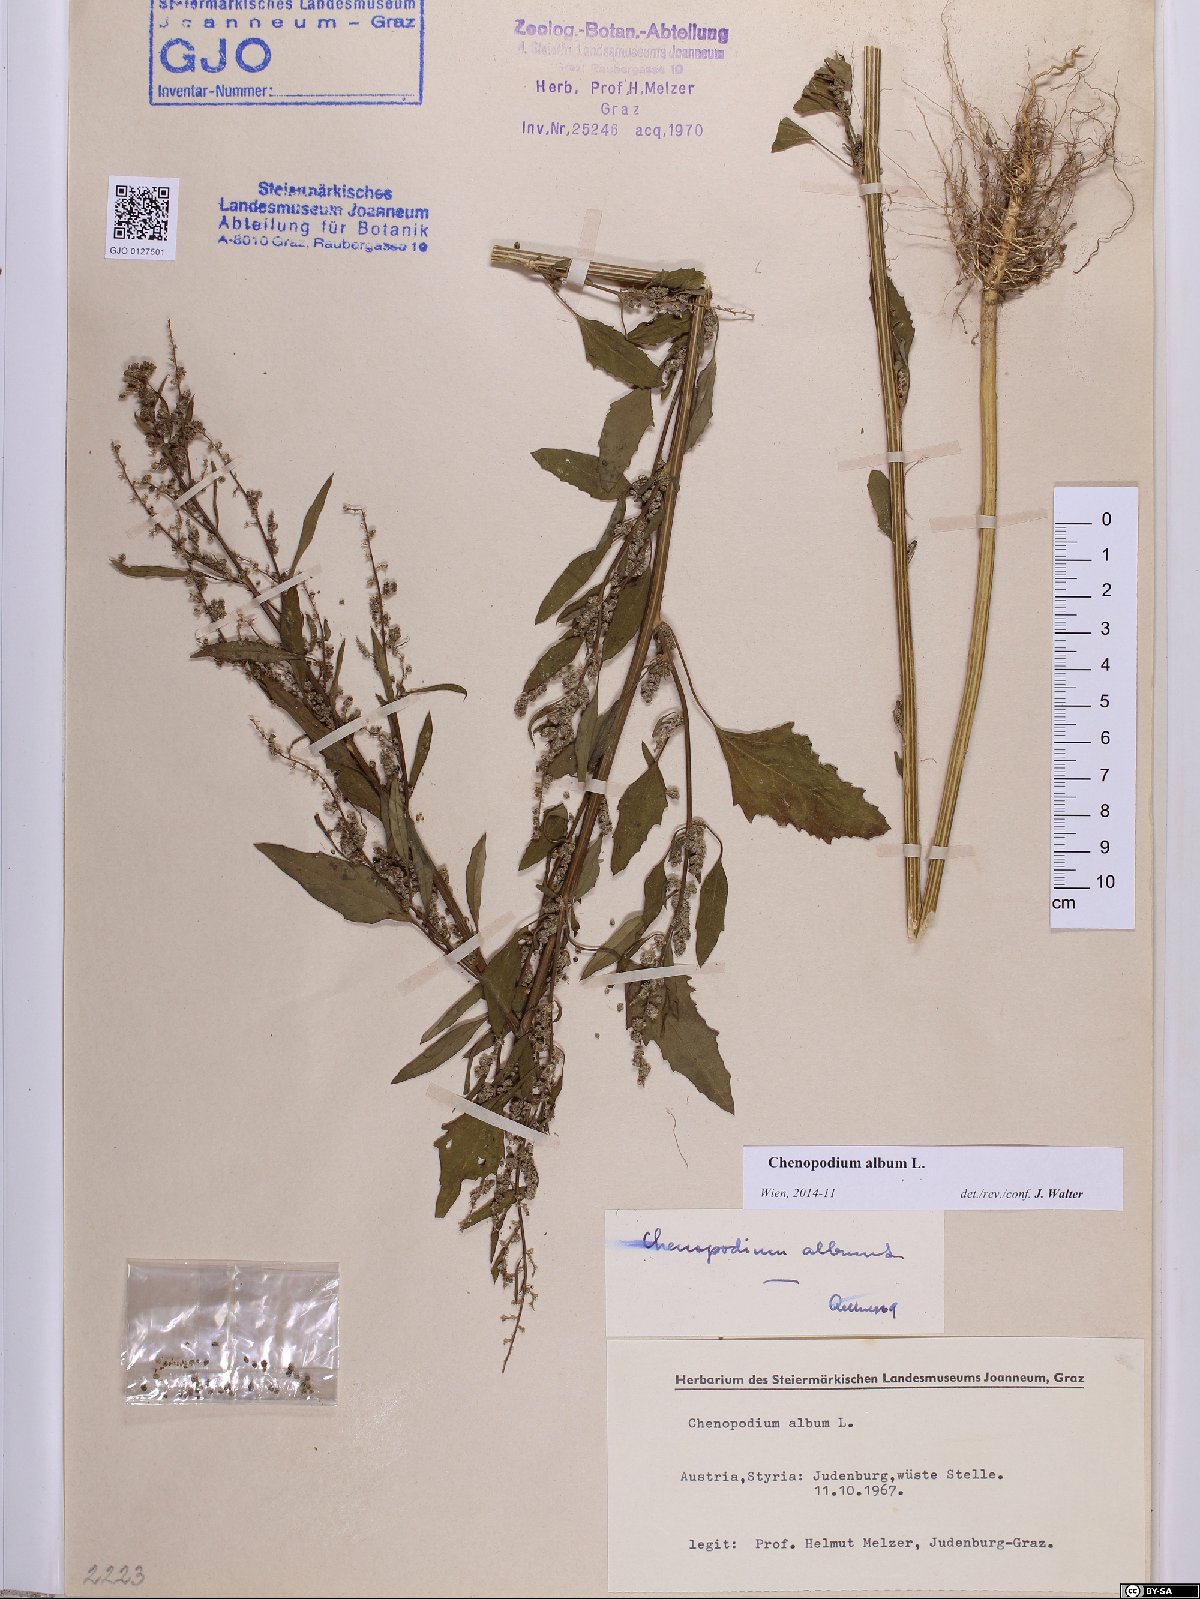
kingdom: Plantae
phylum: Tracheophyta
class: Magnoliopsida
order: Caryophyllales
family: Amaranthaceae
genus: Chenopodium
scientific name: Chenopodium album
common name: Fat-hen
